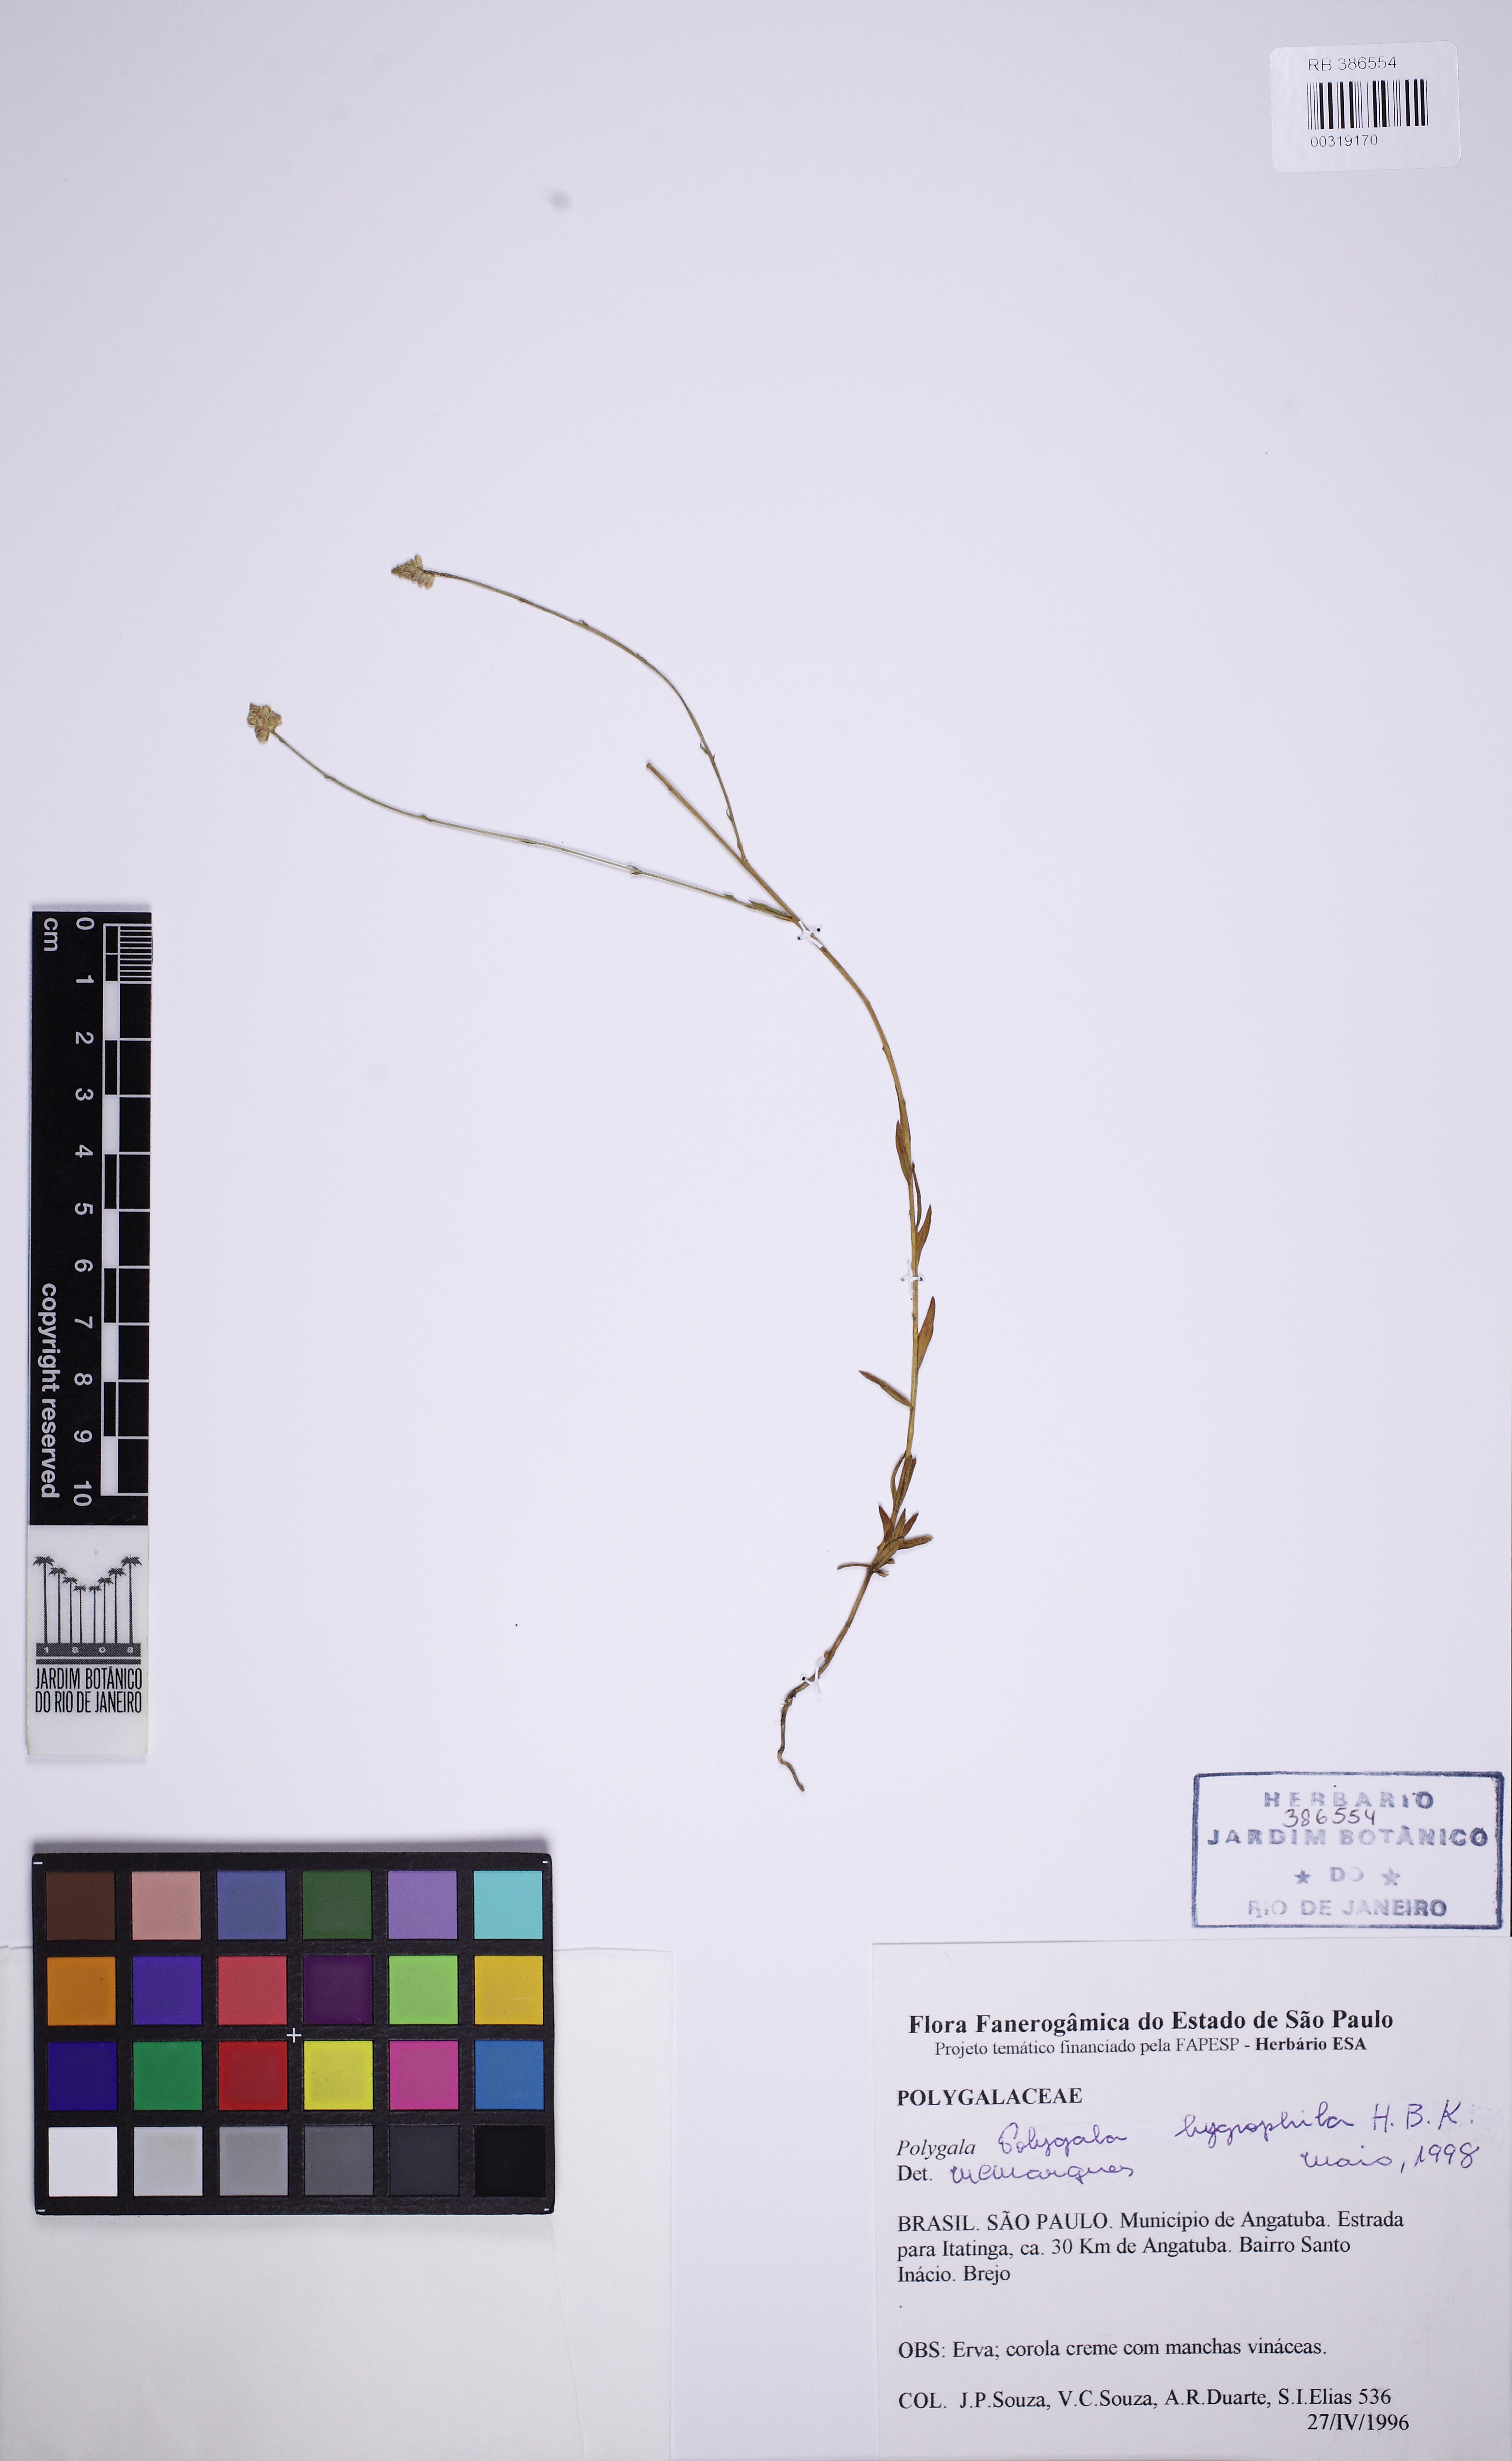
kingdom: Plantae
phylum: Tracheophyta
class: Magnoliopsida
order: Fabales
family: Polygalaceae
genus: Polygala
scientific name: Polygala hygrophila
